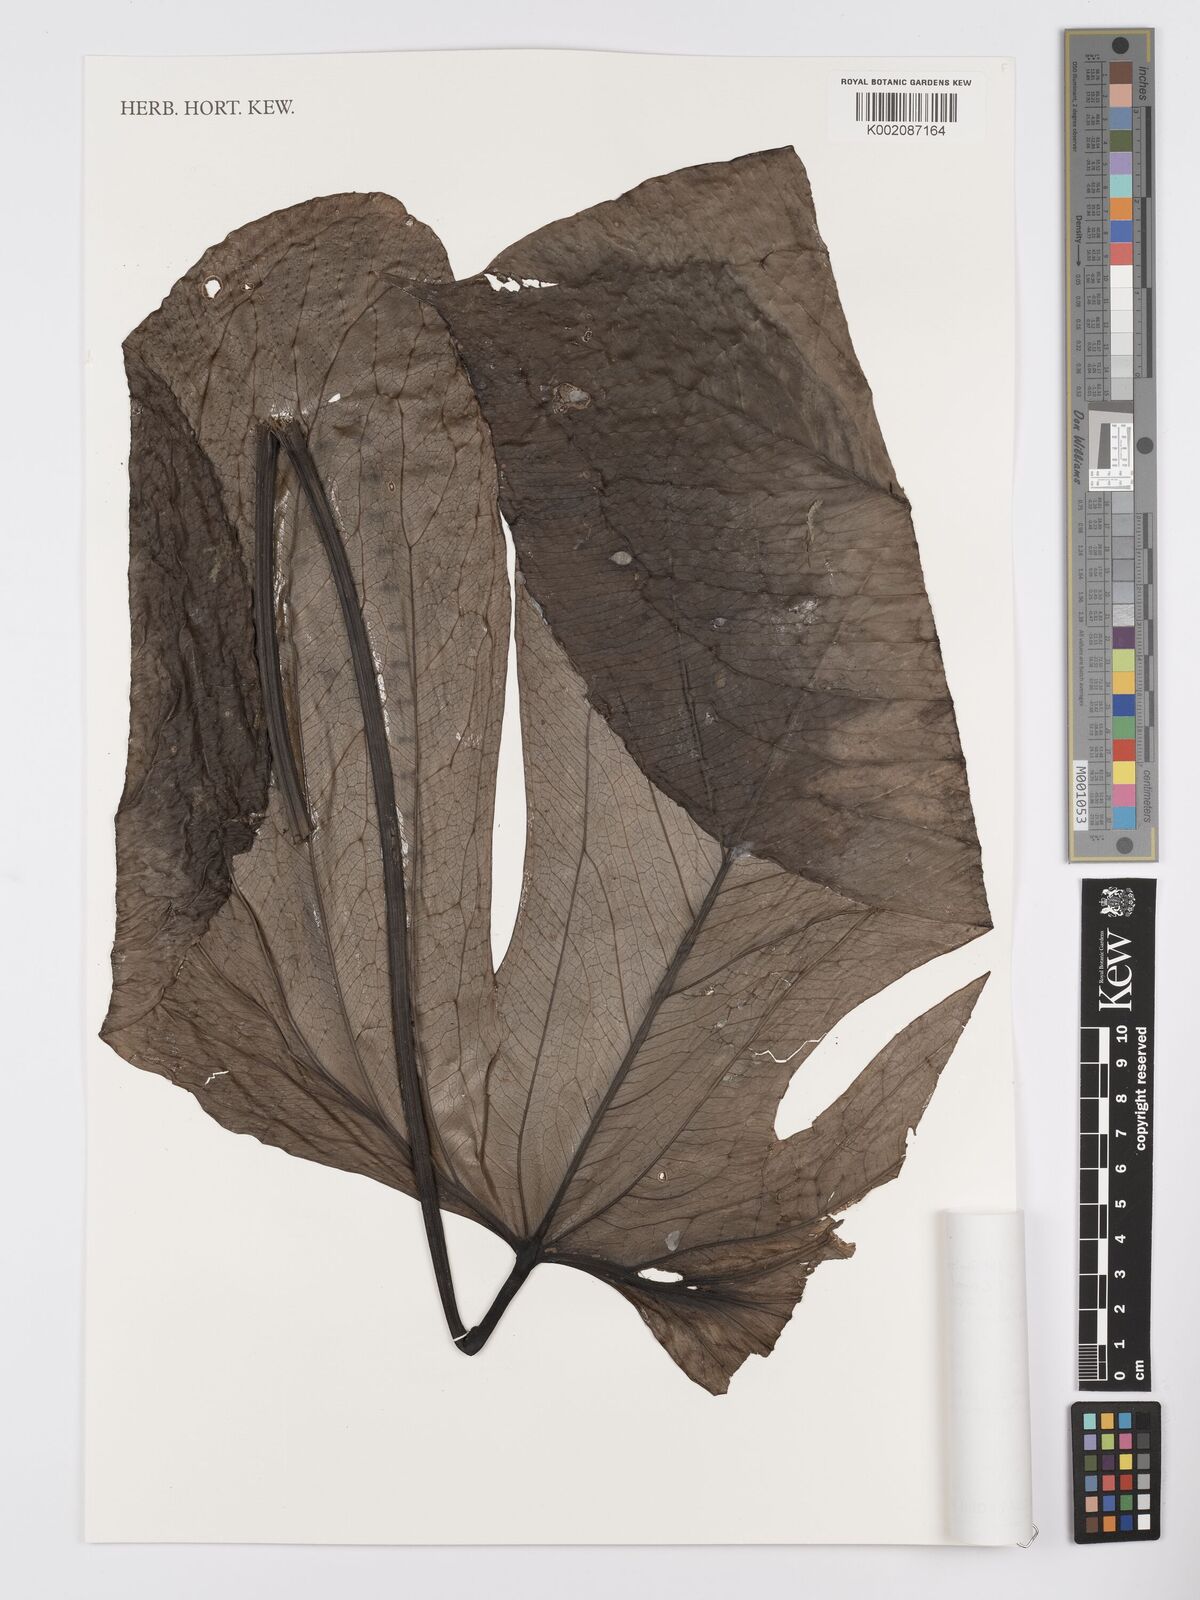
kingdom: Plantae
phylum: Tracheophyta
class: Liliopsida
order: Alismatales
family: Araceae
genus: Anthurium
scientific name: Anthurium truncicola
